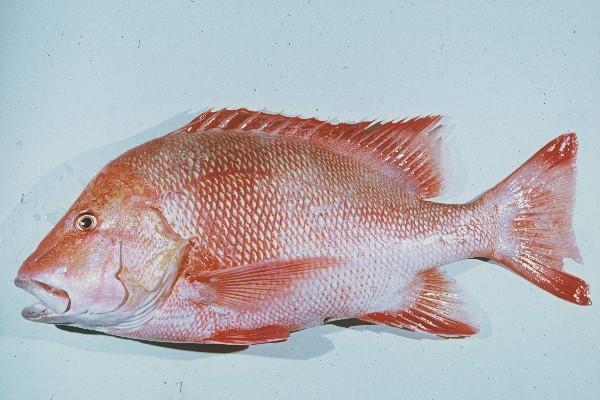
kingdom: Animalia
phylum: Chordata
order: Perciformes
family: Lutjanidae
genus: Lutjanus
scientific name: Lutjanus sebae
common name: Emperor red snapper
